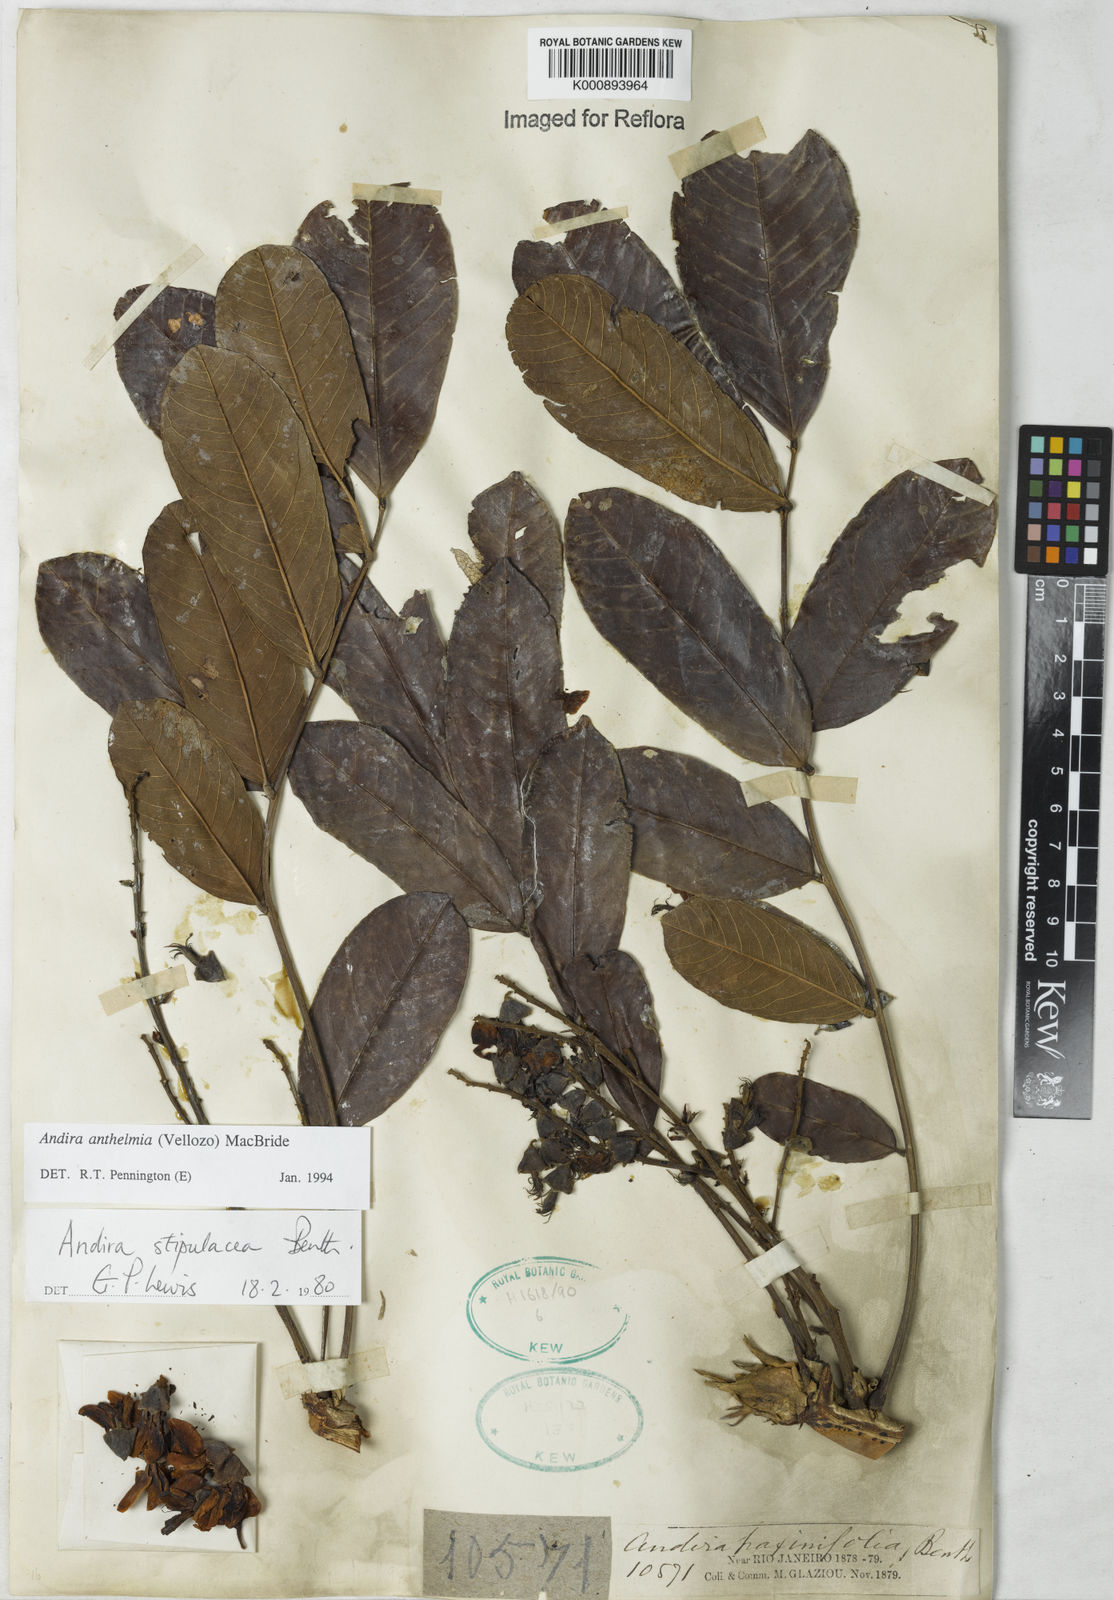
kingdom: Plantae
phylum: Tracheophyta
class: Magnoliopsida
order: Fabales
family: Fabaceae
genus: Andira
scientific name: Andira
